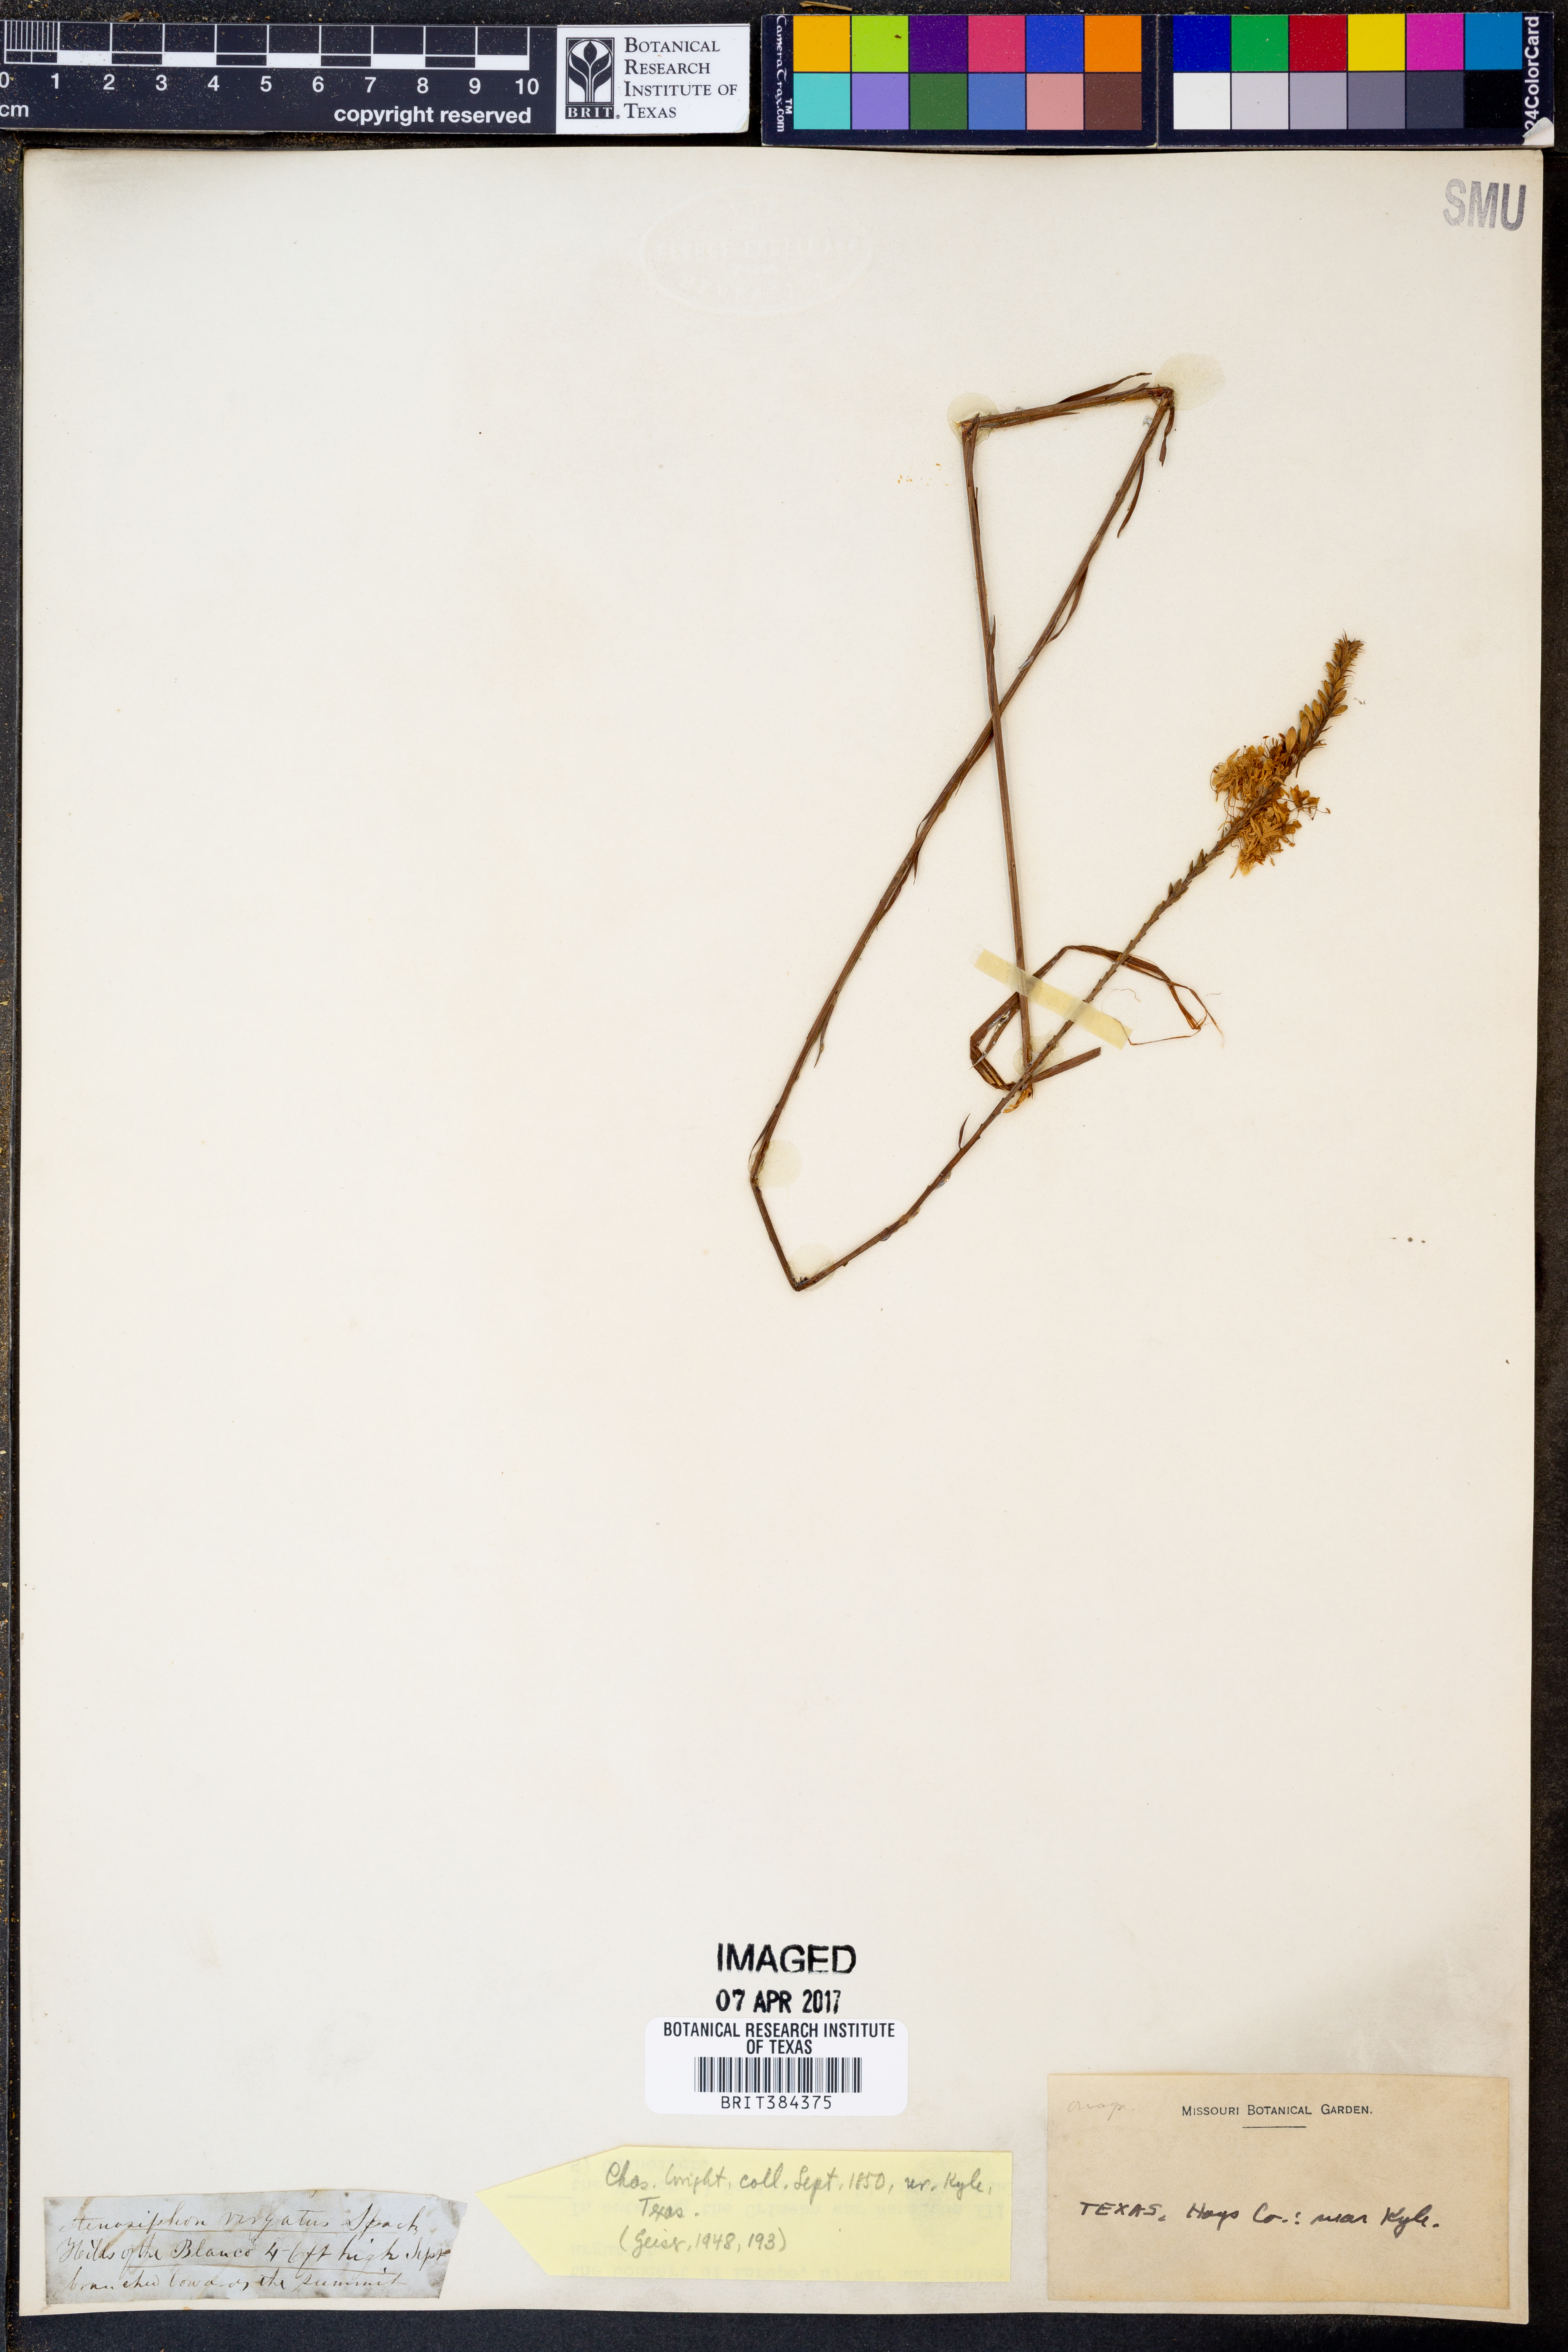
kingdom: Plantae
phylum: Tracheophyta
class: Magnoliopsida
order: Myrtales
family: Onagraceae
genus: Oenothera
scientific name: Oenothera glaucifolia
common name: False gaura
